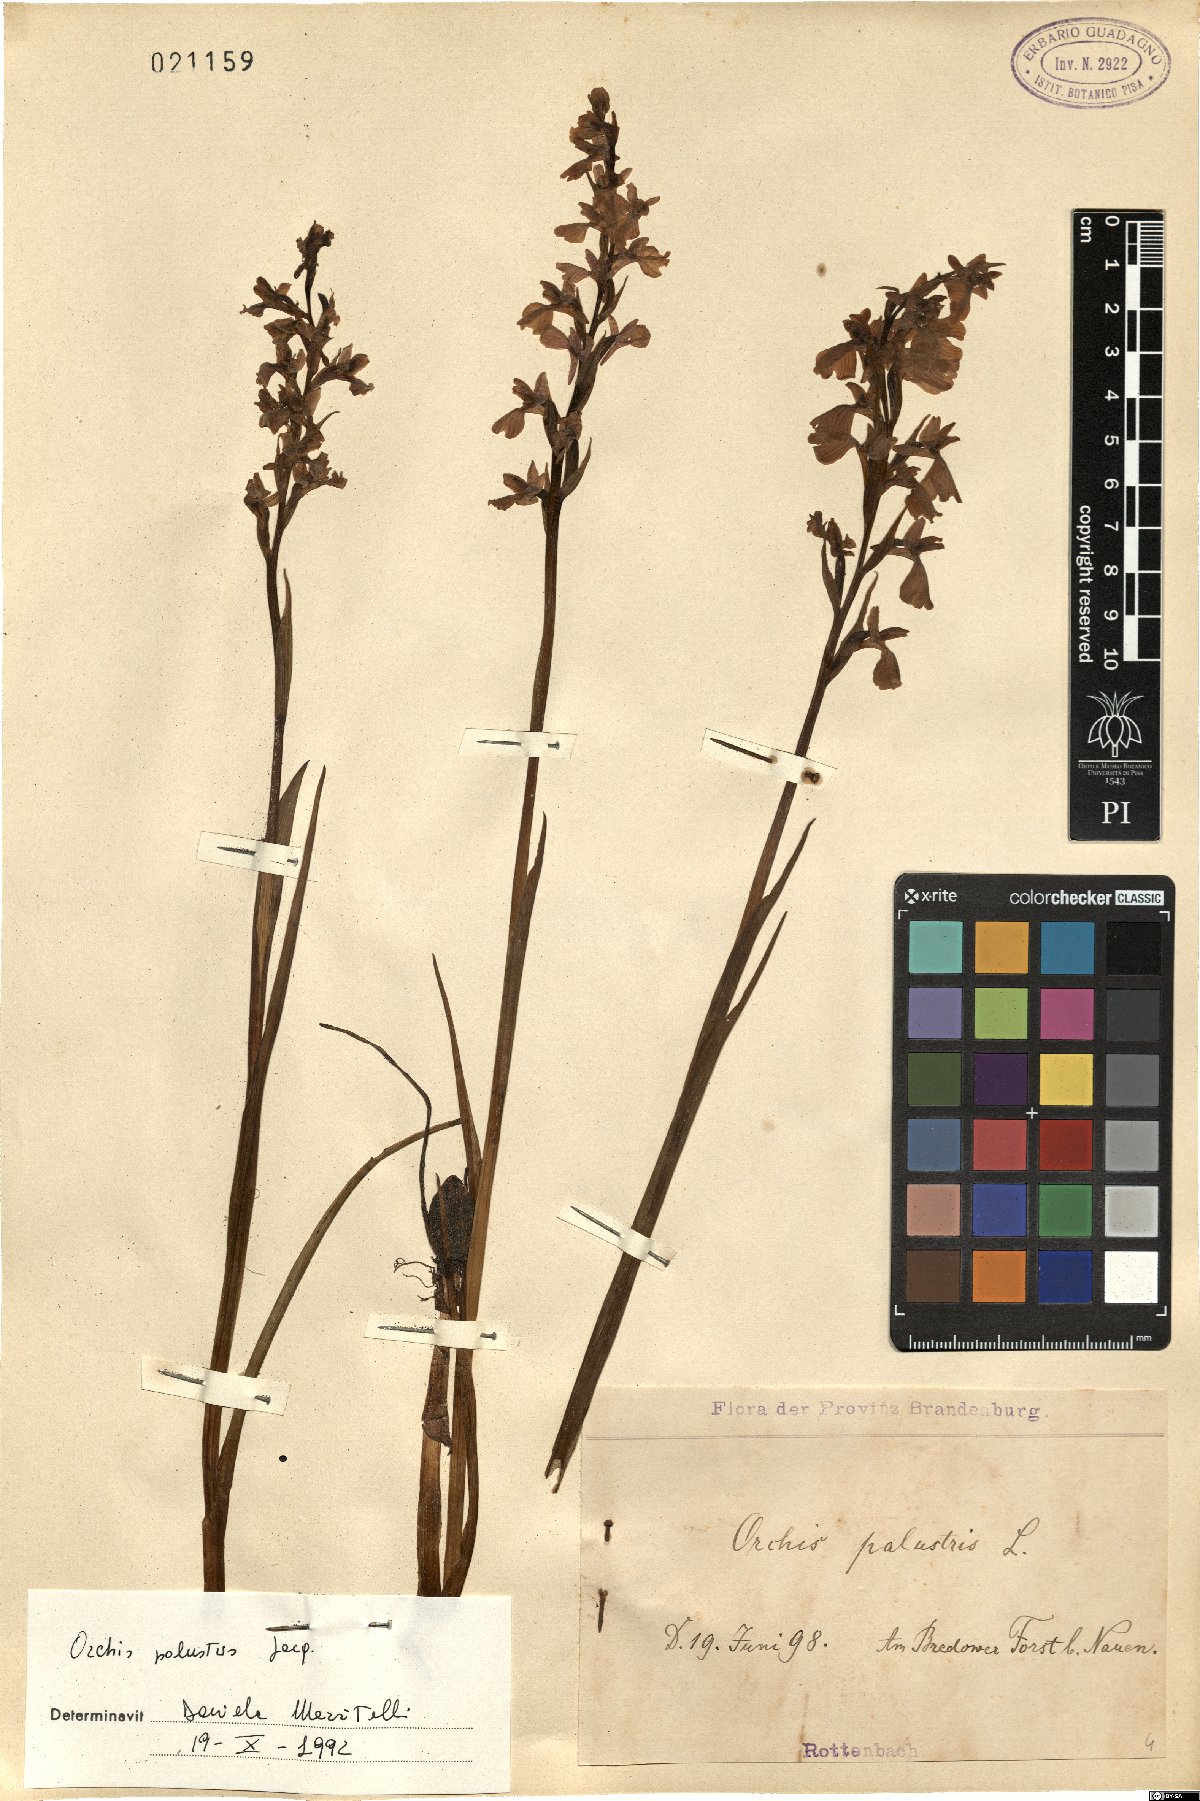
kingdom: Plantae
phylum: Tracheophyta
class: Liliopsida
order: Asparagales
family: Orchidaceae
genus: Anacamptis
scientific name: Anacamptis palustris
